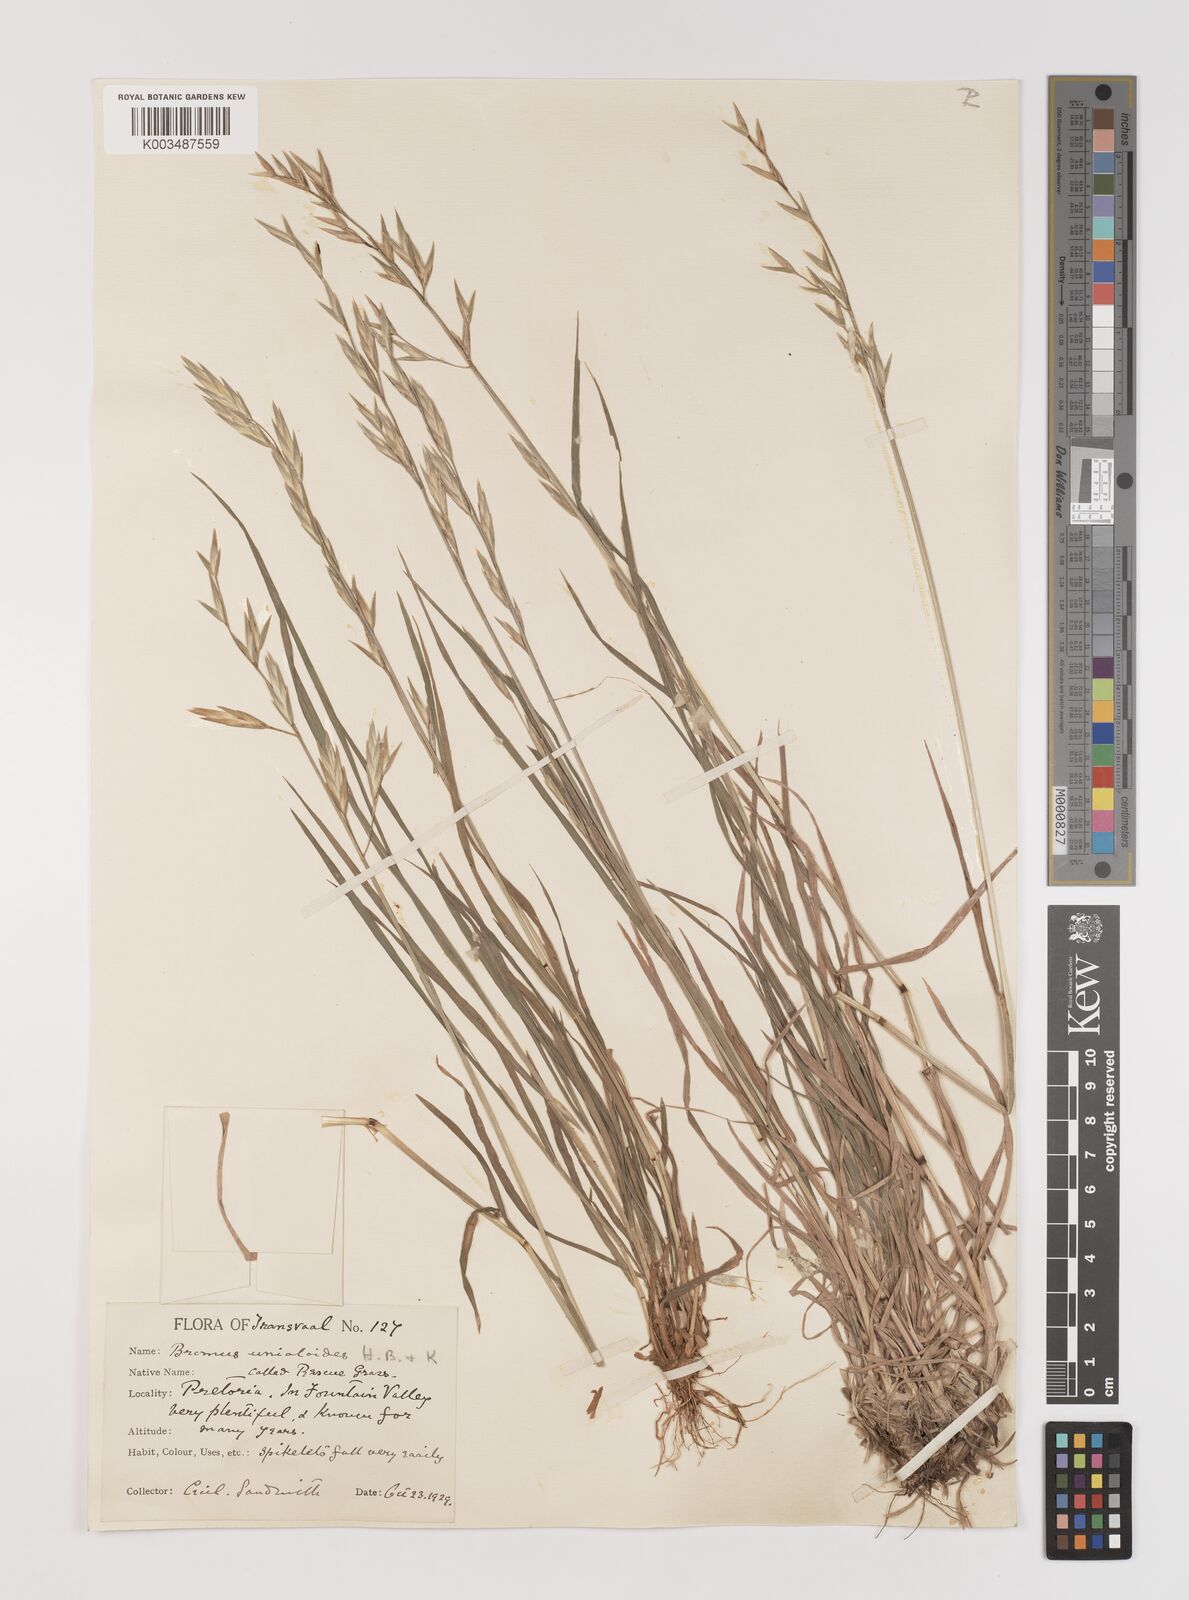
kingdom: Plantae
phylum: Tracheophyta
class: Liliopsida
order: Poales
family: Poaceae
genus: Bromus
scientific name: Bromus catharticus
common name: Rescuegrass
